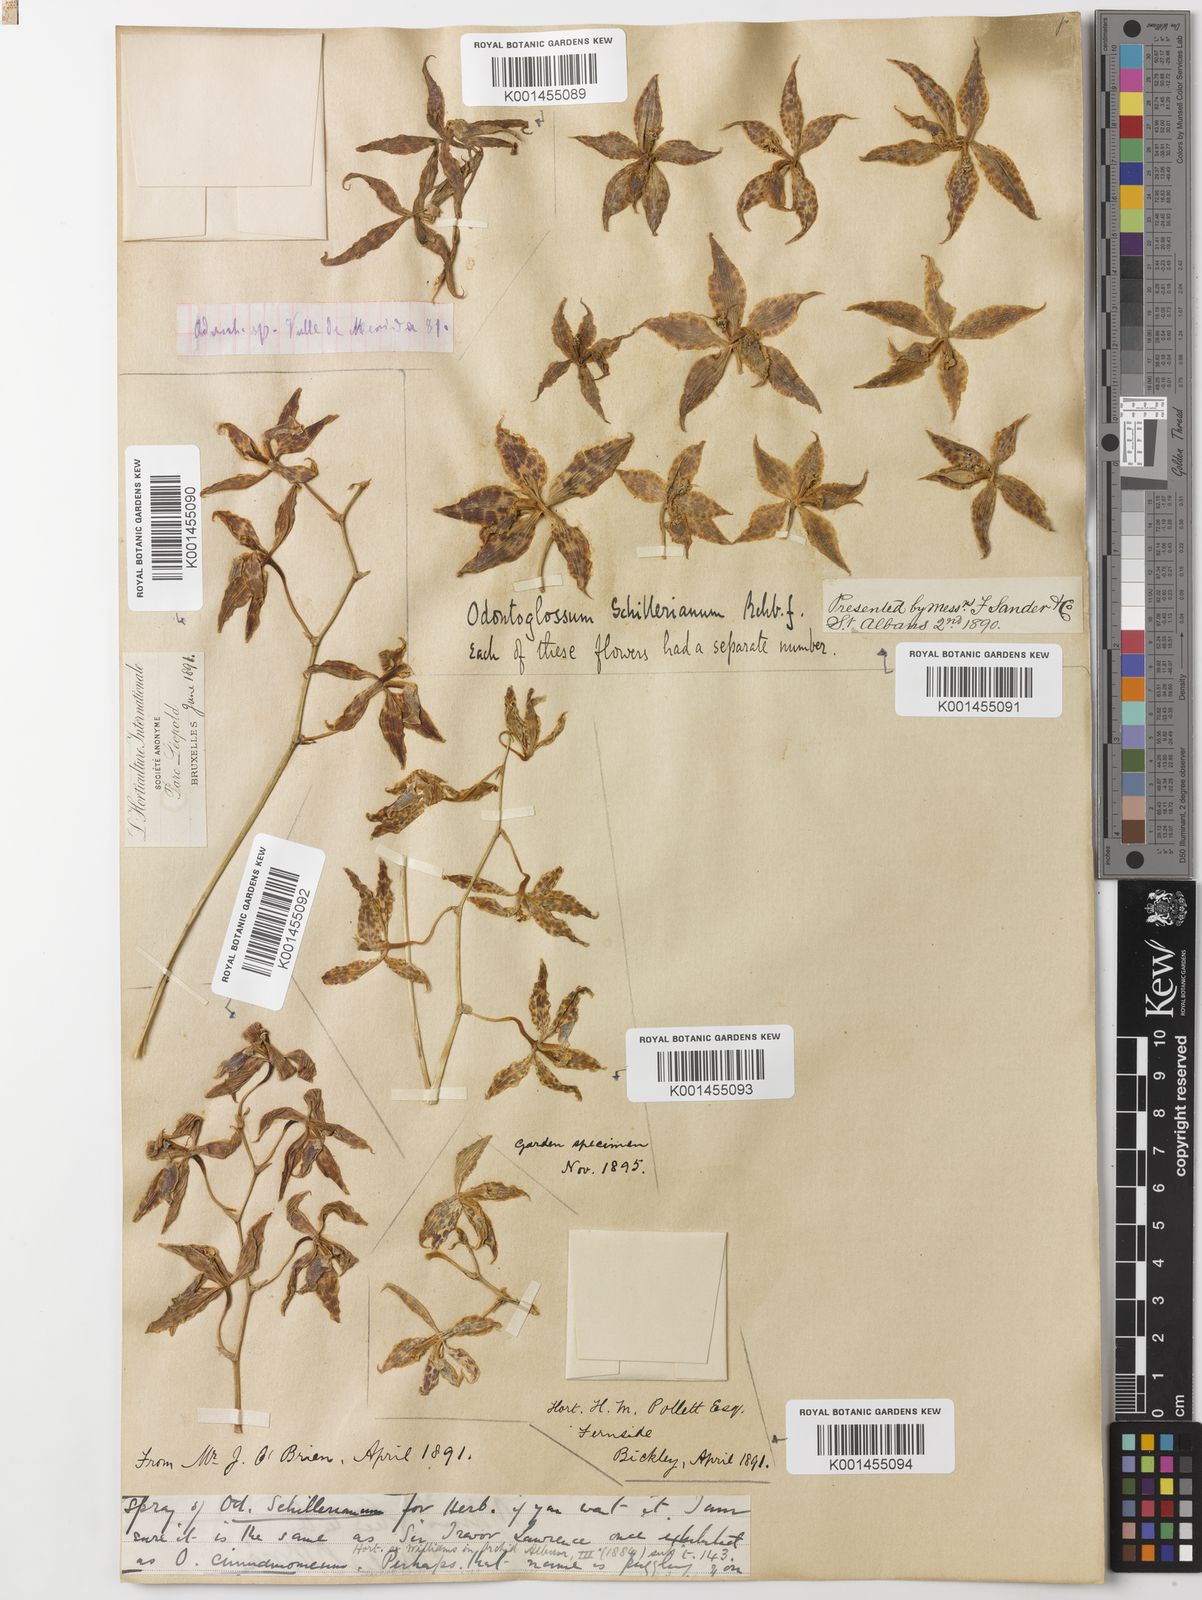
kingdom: Plantae
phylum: Tracheophyta
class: Liliopsida
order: Asparagales
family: Orchidaceae
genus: Oncidium
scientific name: Oncidium cinnamomeum
